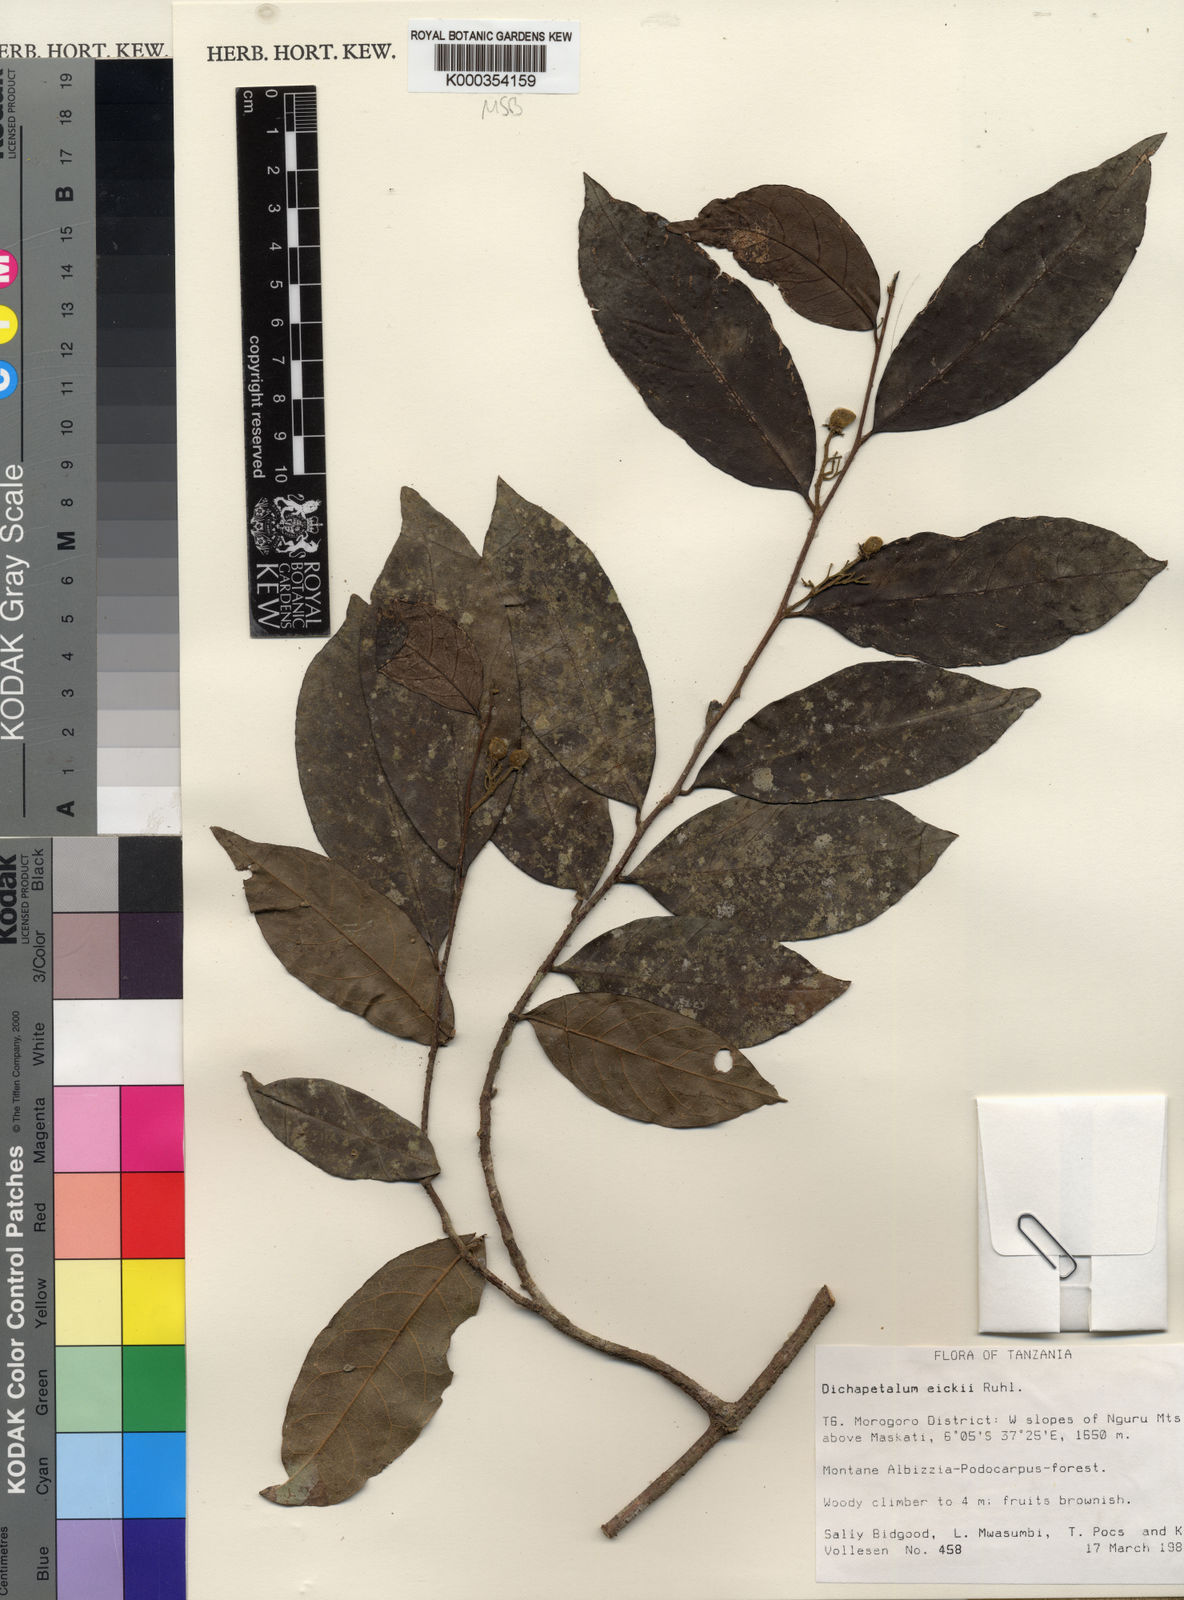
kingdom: Plantae
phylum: Tracheophyta
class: Magnoliopsida
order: Malpighiales
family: Dichapetalaceae
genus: Dichapetalum
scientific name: Dichapetalum eickii
